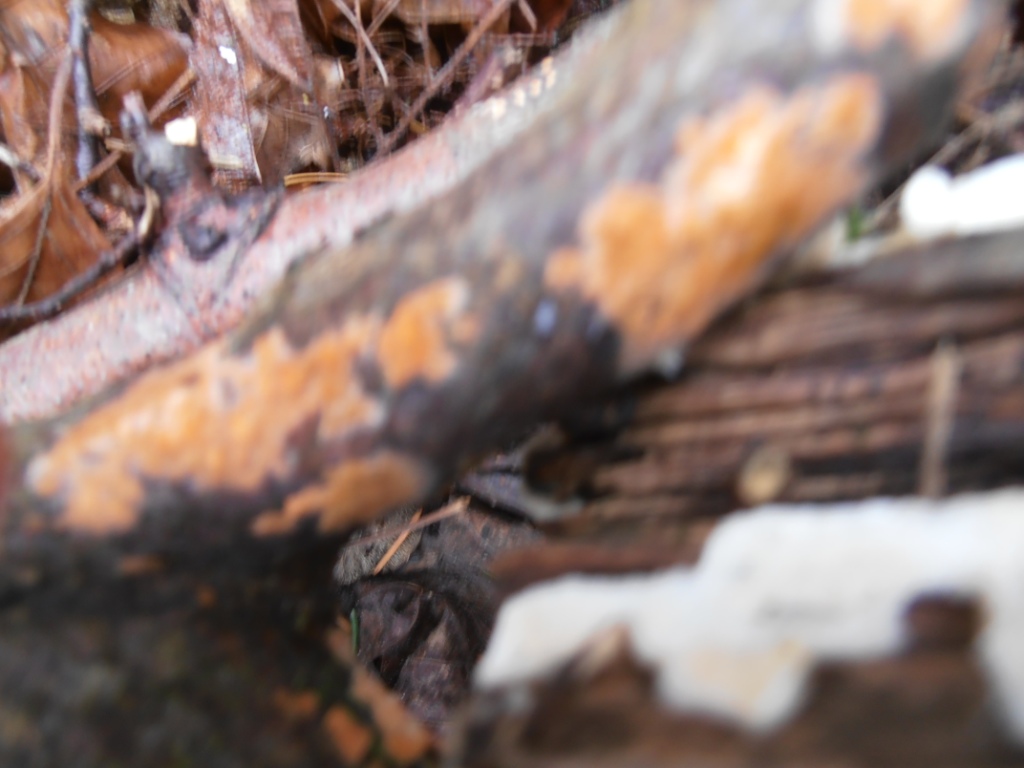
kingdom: Fungi
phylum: Basidiomycota
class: Agaricomycetes
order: Russulales
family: Peniophoraceae
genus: Peniophora
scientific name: Peniophora incarnata
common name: laksefarvet voksskind
